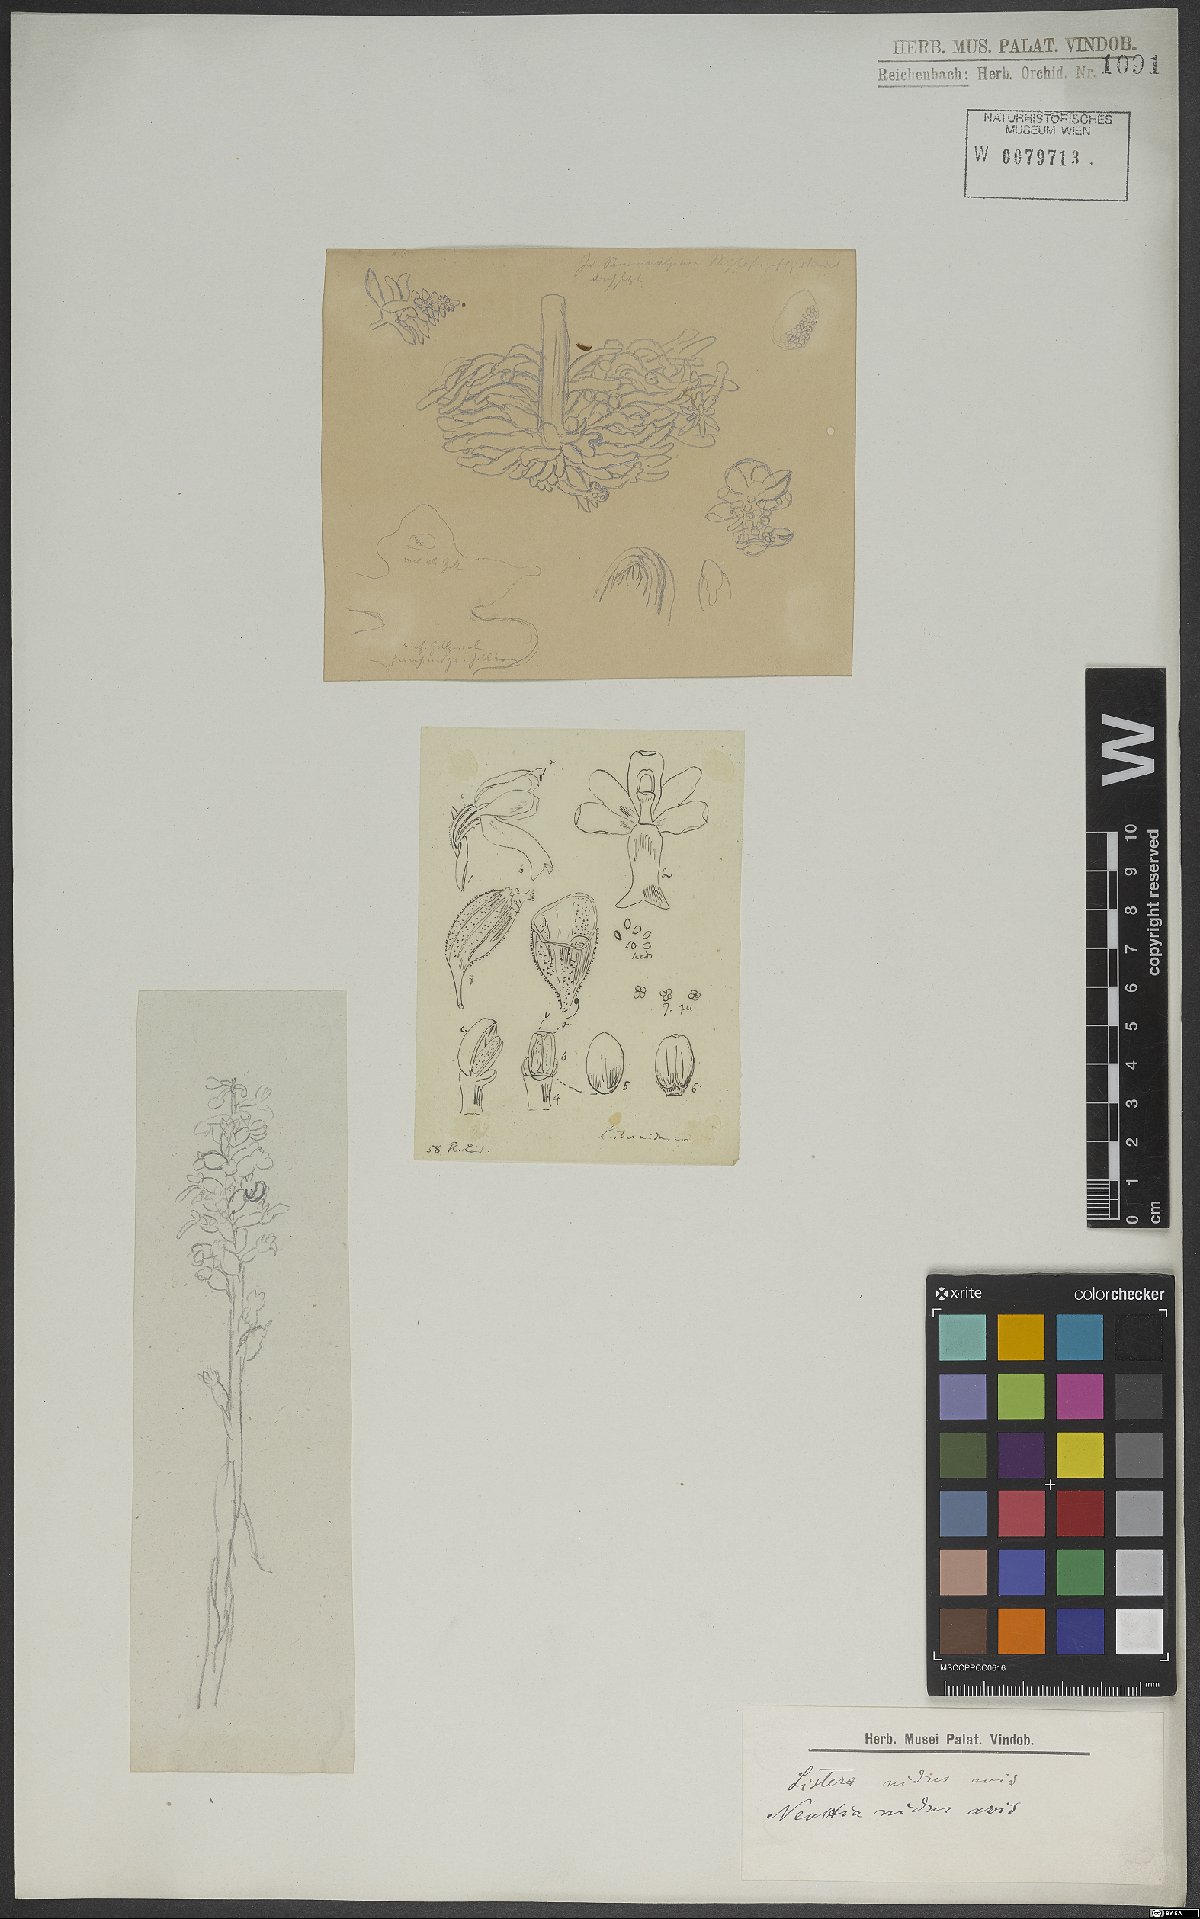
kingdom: Plantae
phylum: Tracheophyta
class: Liliopsida
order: Asparagales
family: Orchidaceae
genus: Neottia
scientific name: Neottia nidus-avis
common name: Bird's-nest orchid
